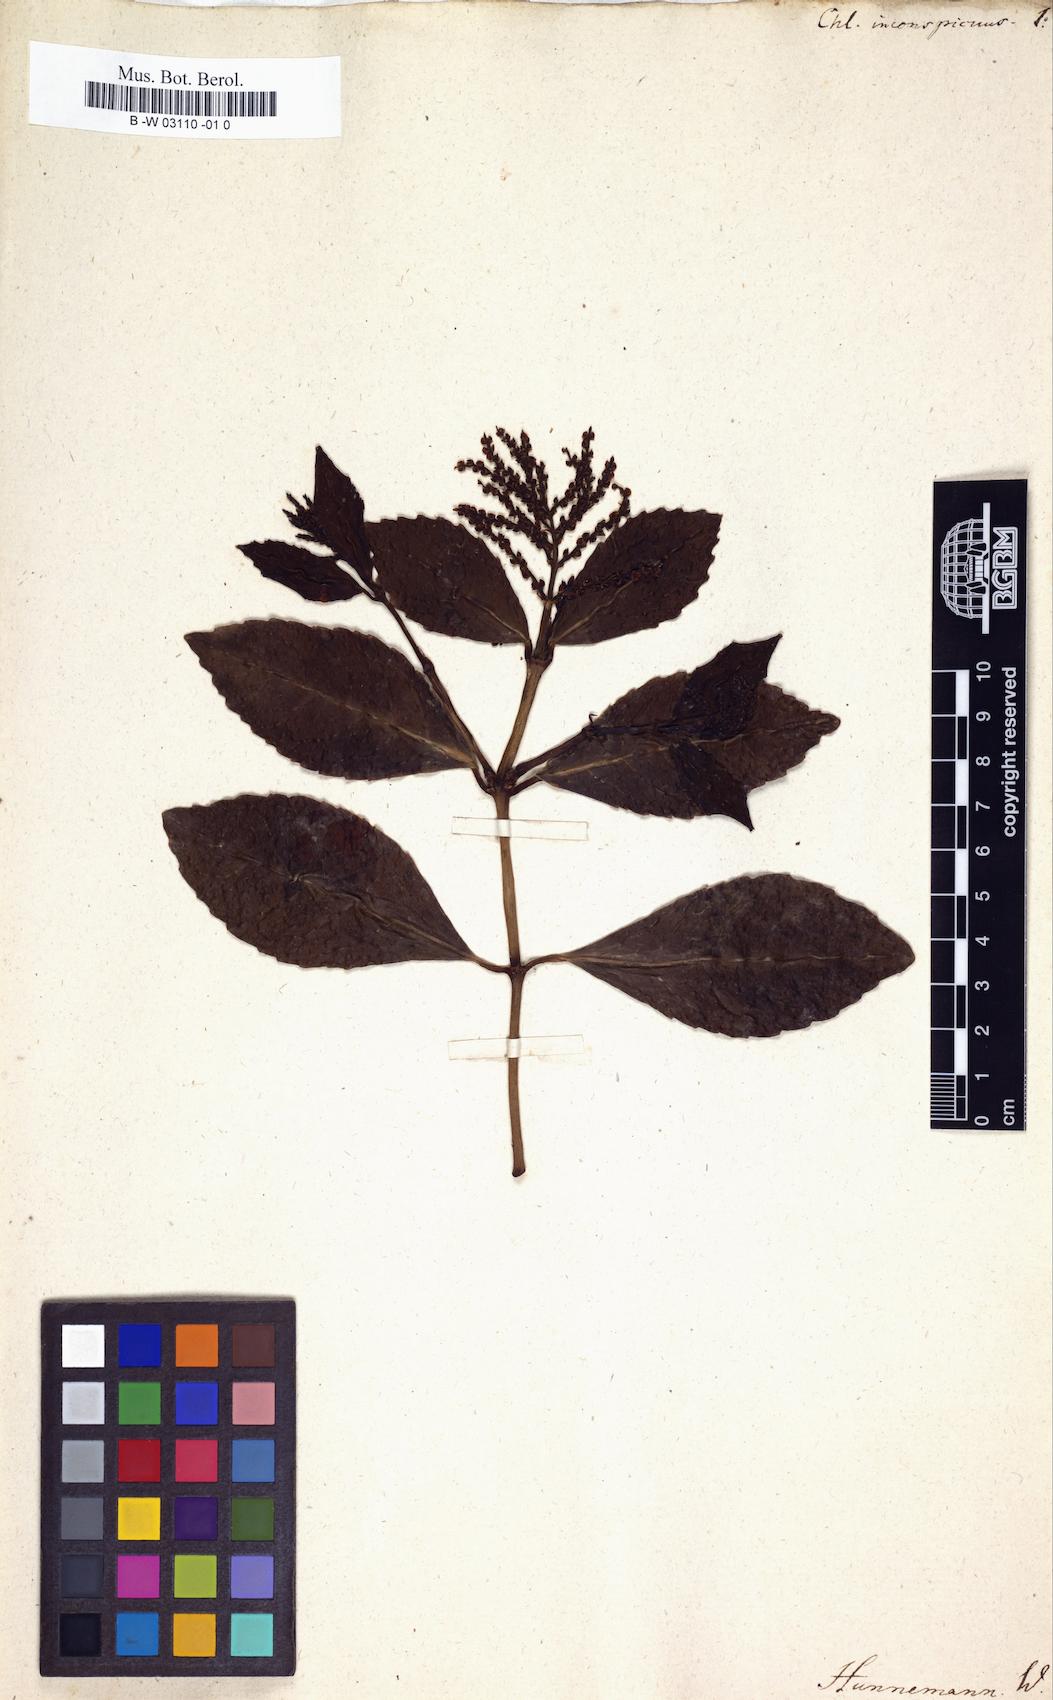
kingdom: Plantae
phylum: Tracheophyta
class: Magnoliopsida
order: Chloranthales
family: Chloranthaceae
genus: Chloranthus
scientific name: Chloranthus spicatus
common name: Chulantree
